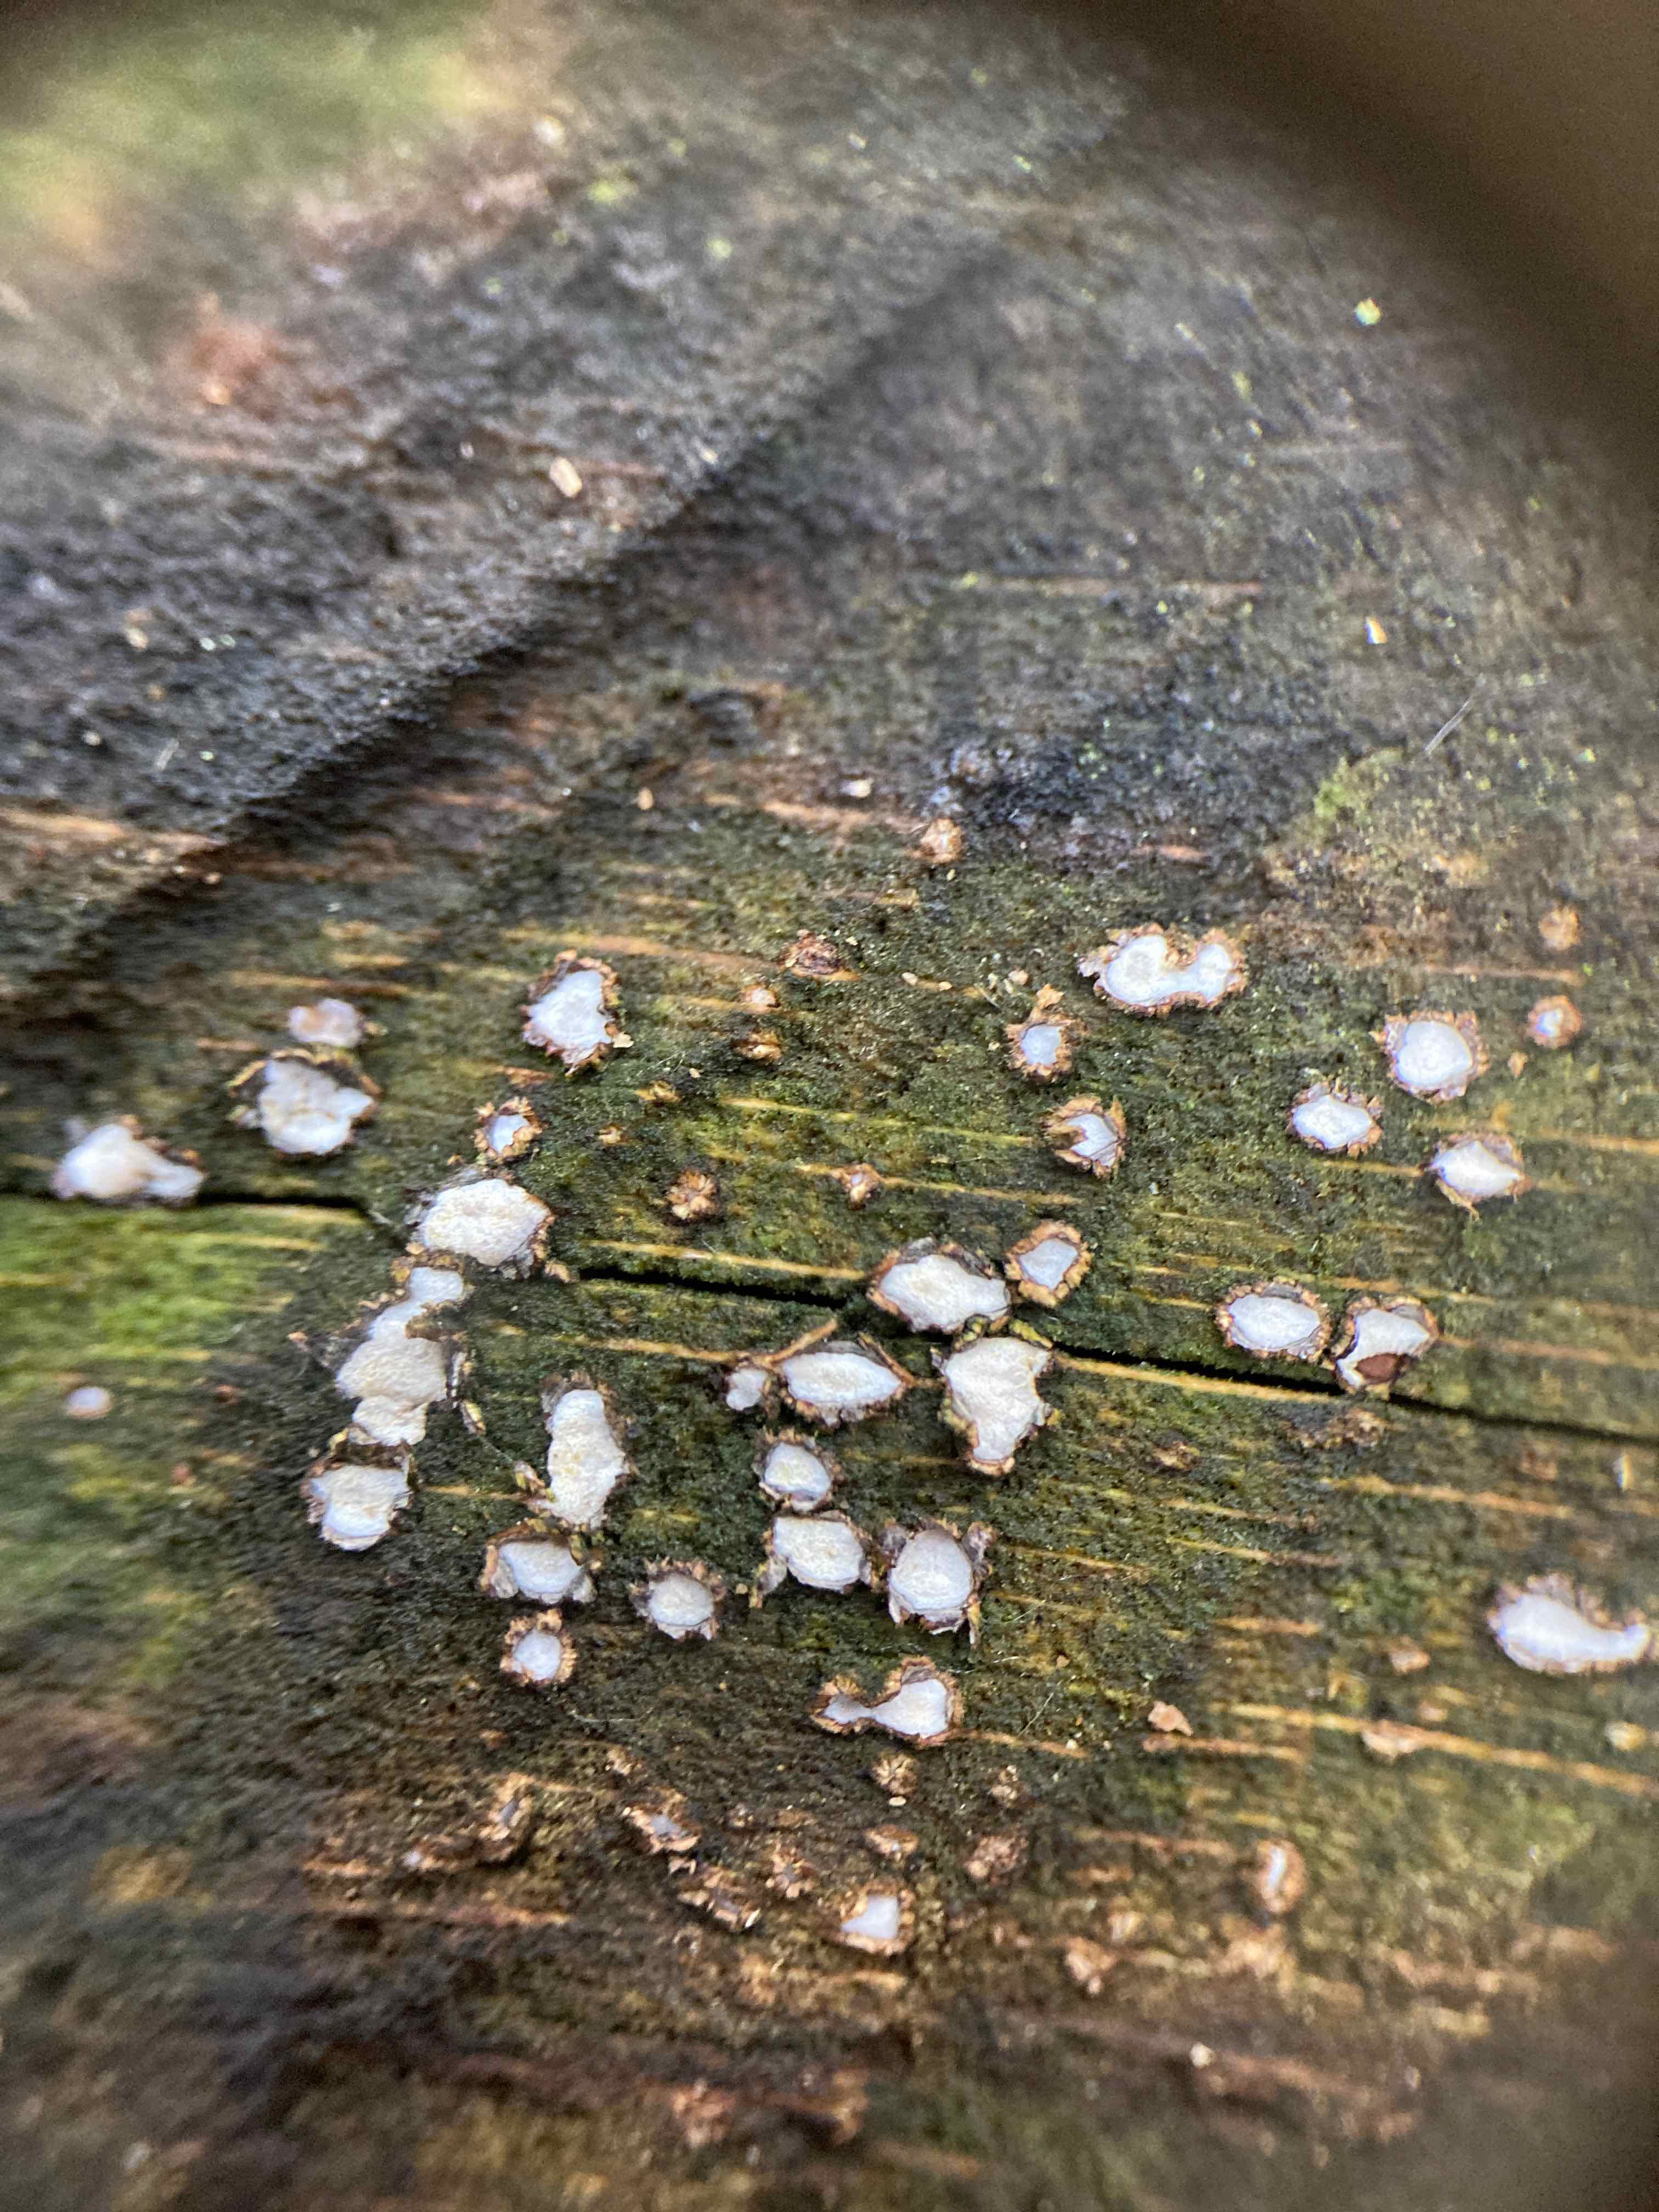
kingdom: Fungi
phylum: Ascomycota
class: Leotiomycetes
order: Chaetomellales
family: Marthamycetaceae
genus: Propolis
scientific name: Propolis farinosa
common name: almindelig vedsprængerskive
